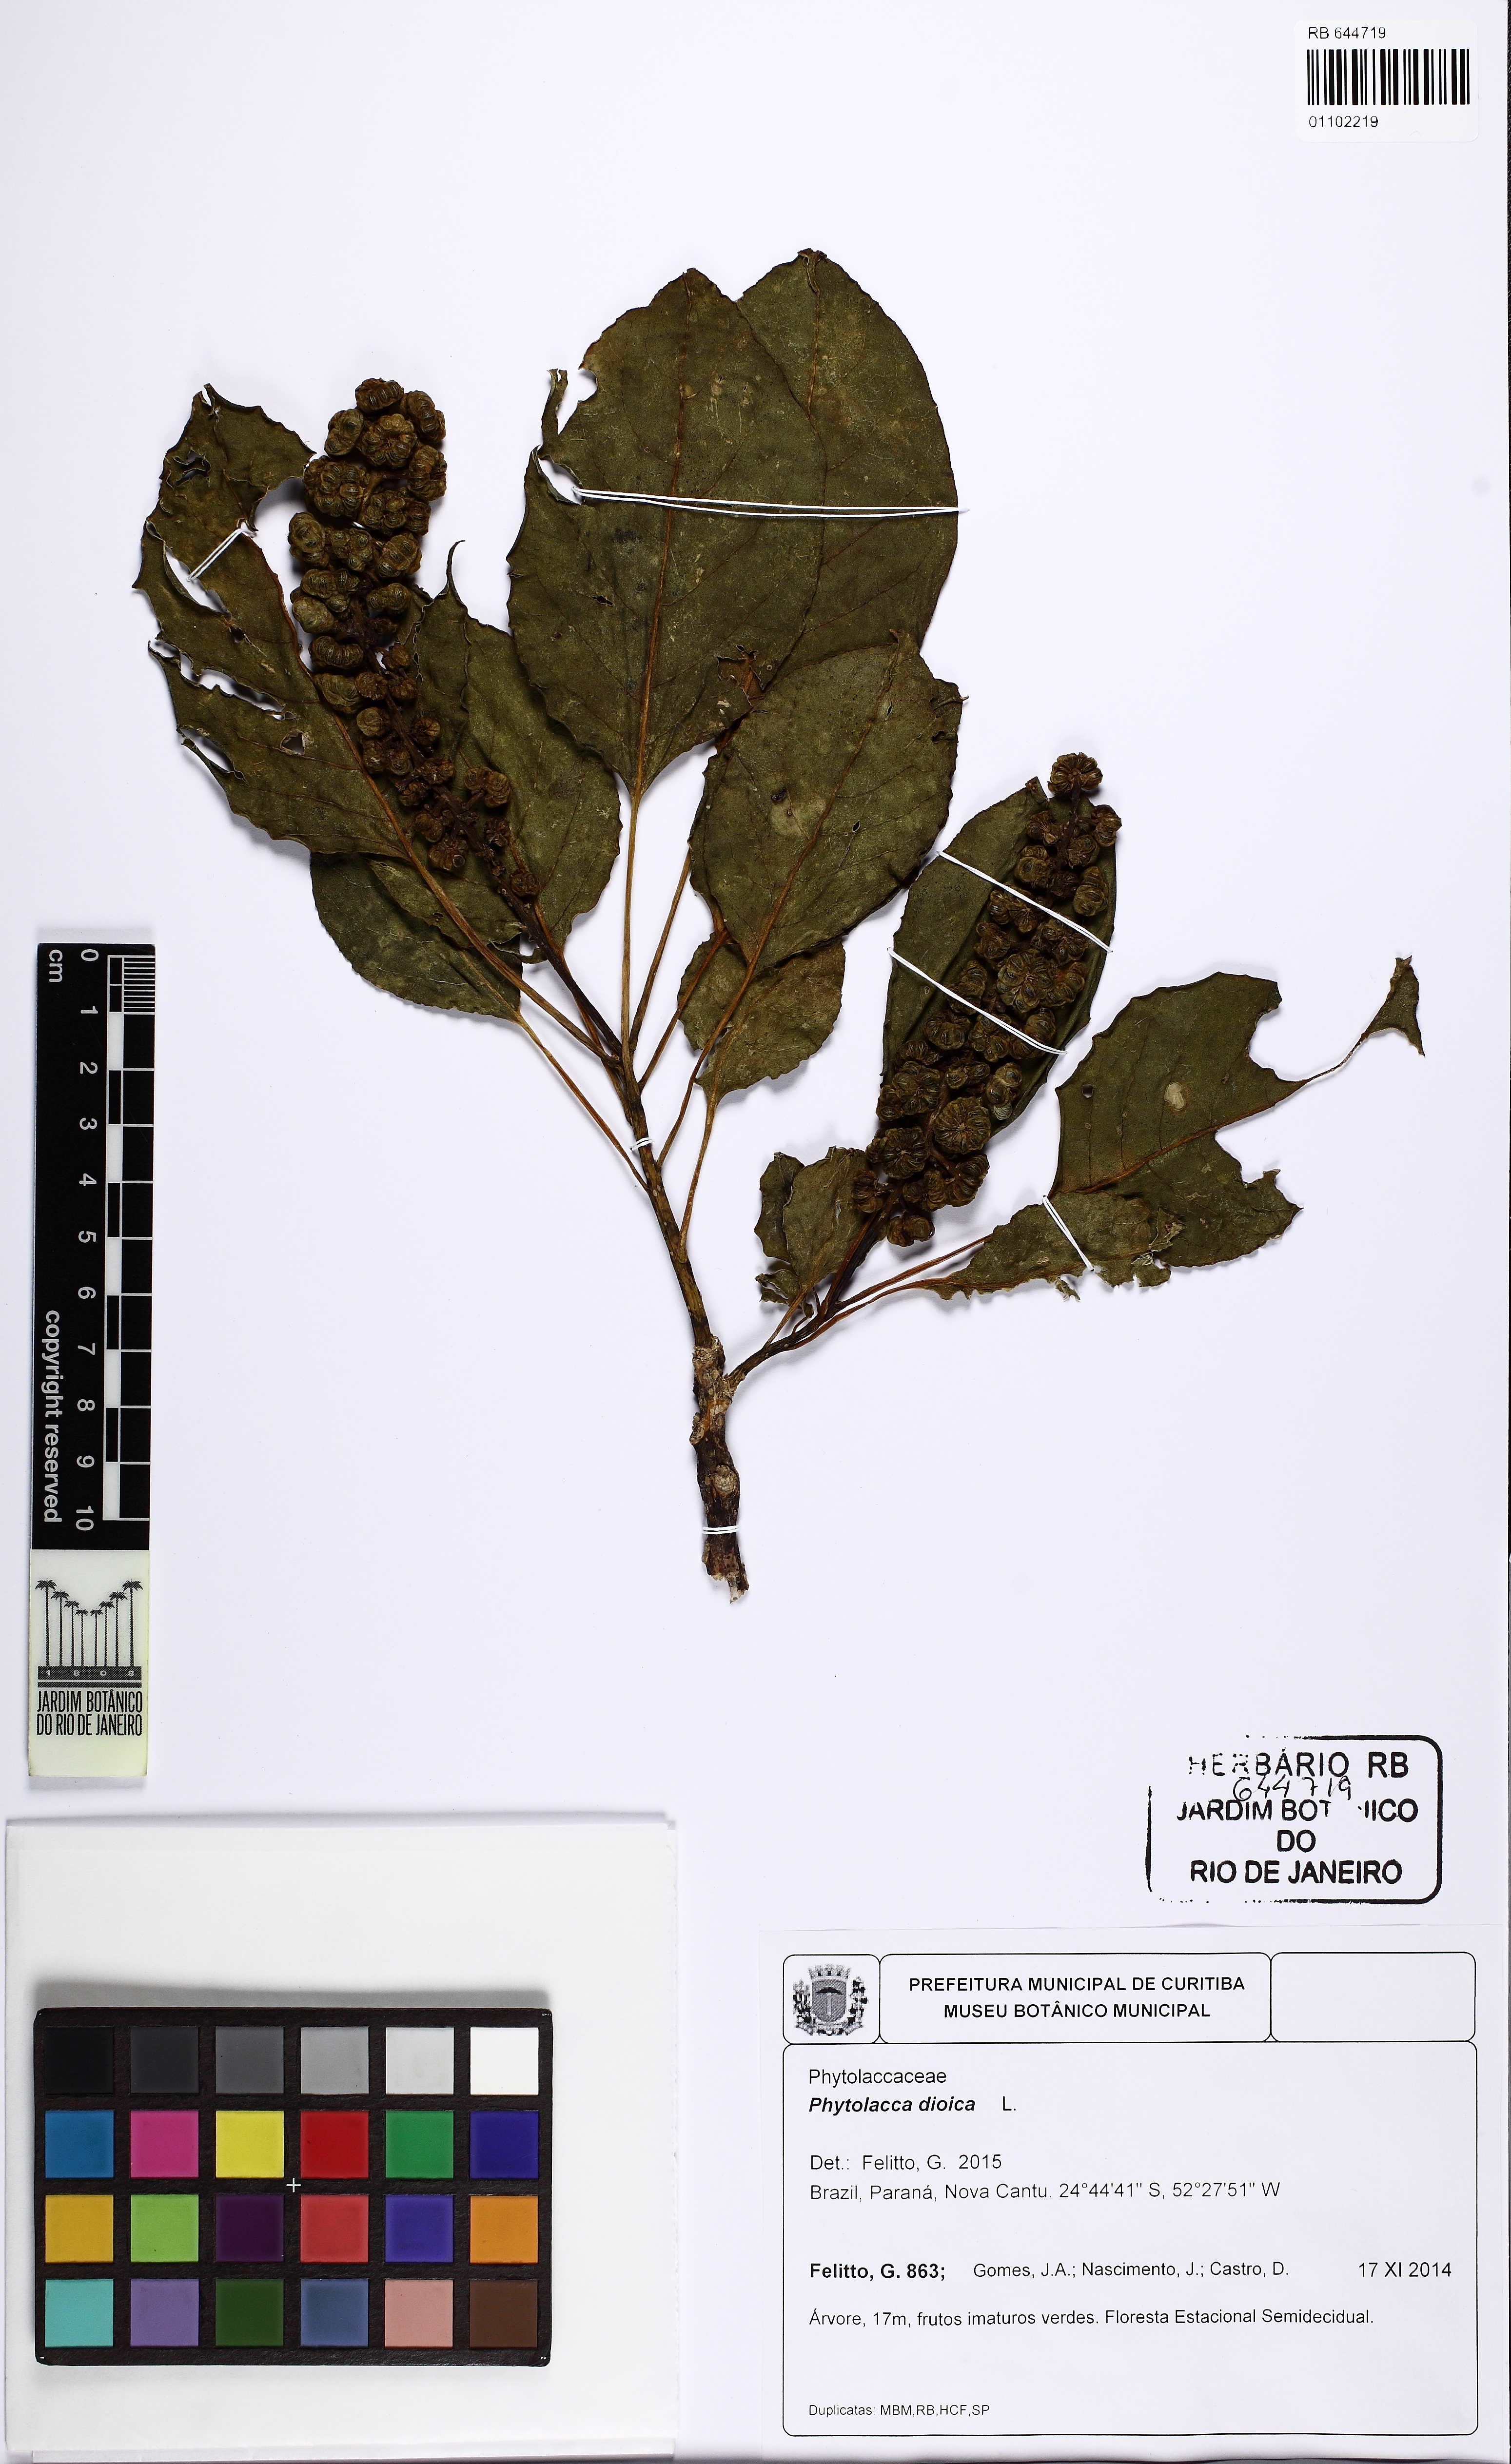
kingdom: Plantae
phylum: Tracheophyta
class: Magnoliopsida
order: Caryophyllales
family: Phytolaccaceae
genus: Phytolacca
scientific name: Phytolacca dioica
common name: Pokeweed
